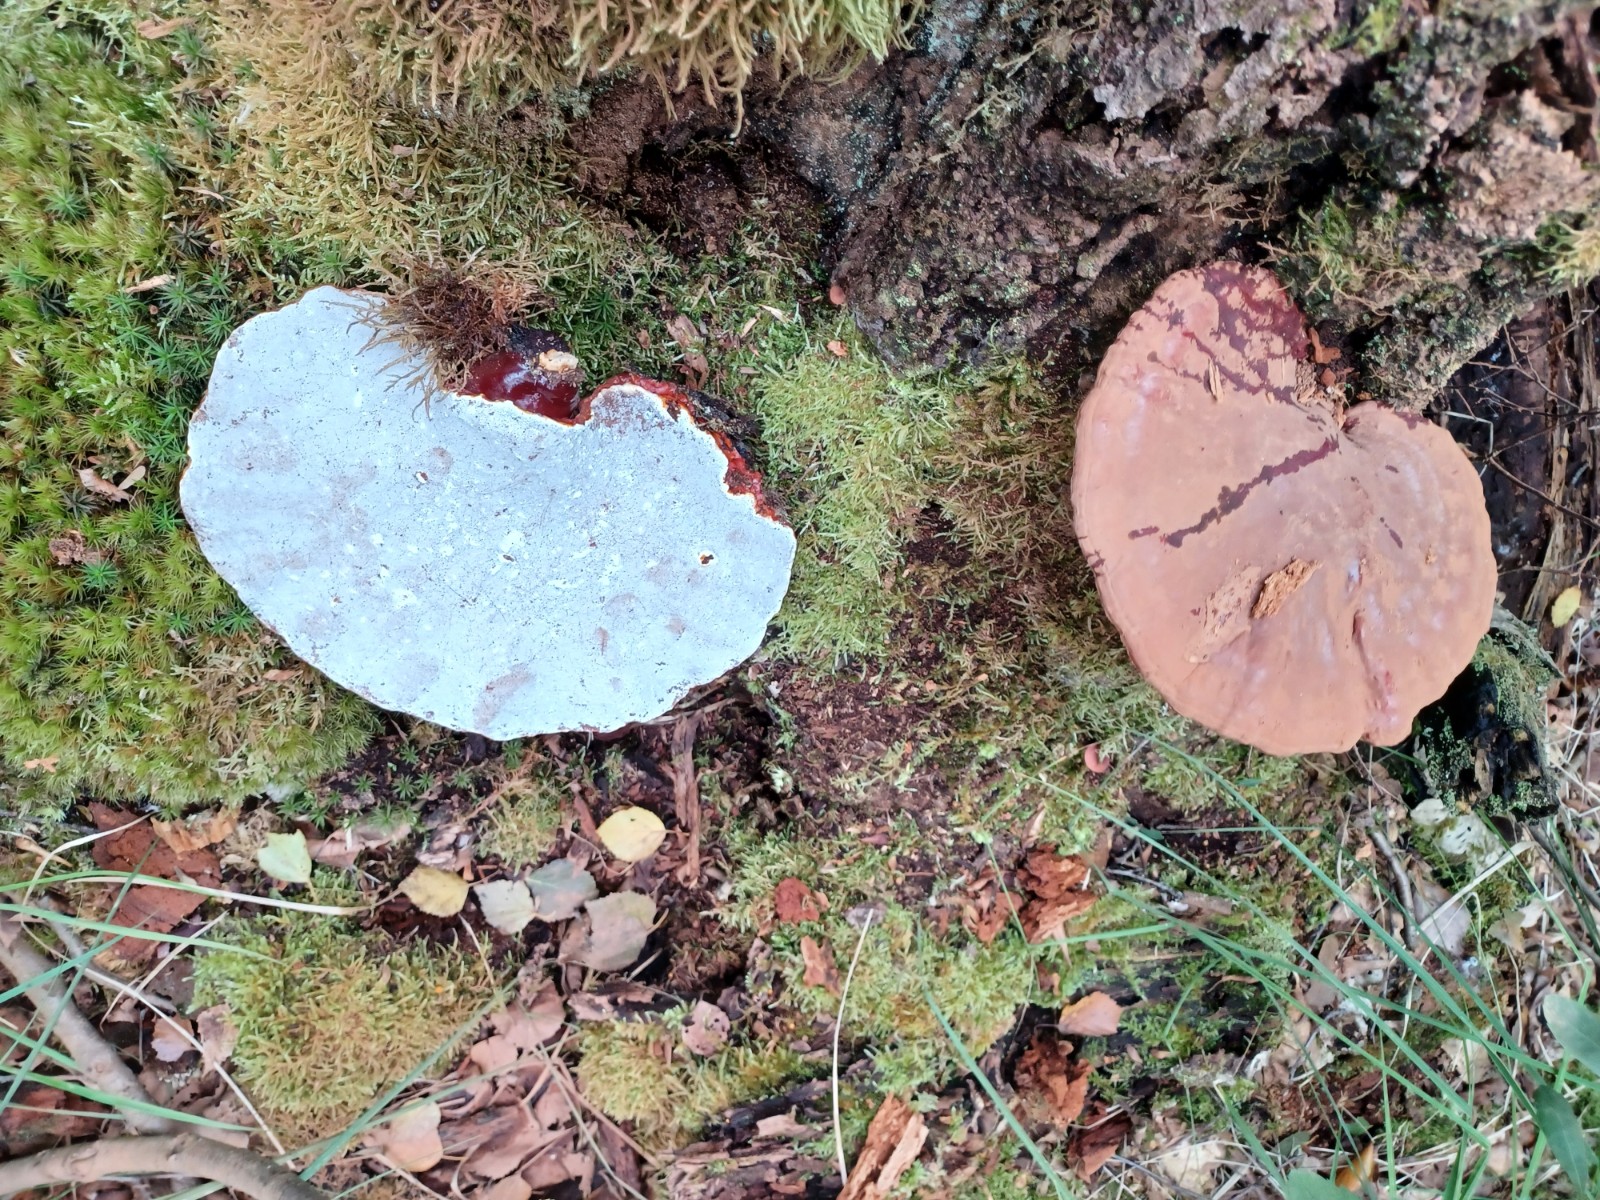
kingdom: Fungi
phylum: Basidiomycota
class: Agaricomycetes
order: Polyporales
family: Polyporaceae
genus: Ganoderma
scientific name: Ganoderma lucidum
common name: skinnende lakporesvamp
